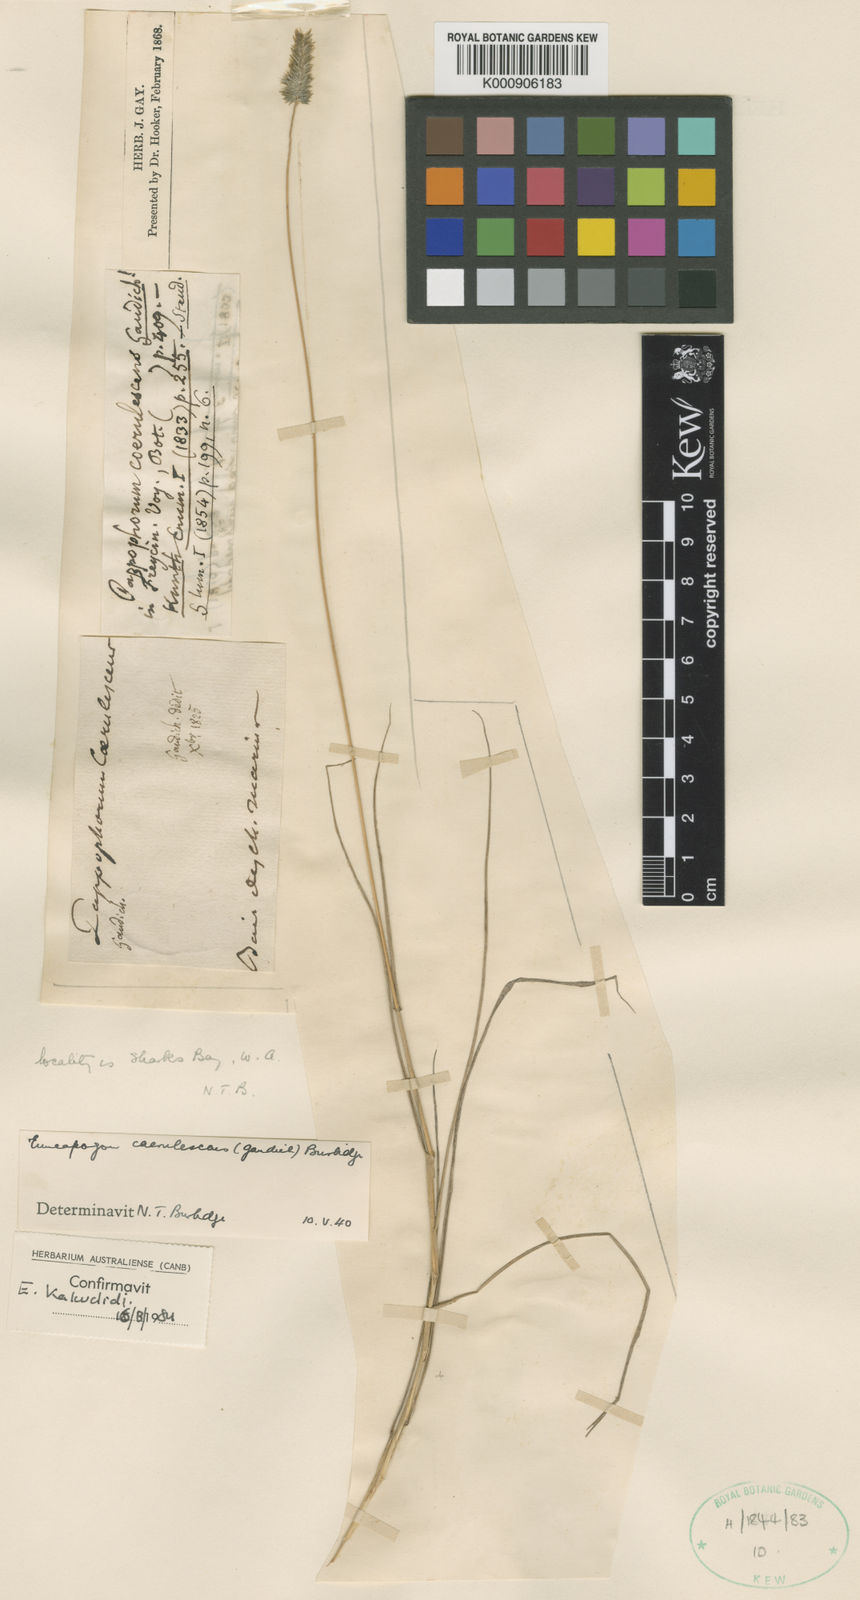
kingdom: Plantae
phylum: Tracheophyta
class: Liliopsida
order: Poales
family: Poaceae
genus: Enneapogon
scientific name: Enneapogon caerulescens
